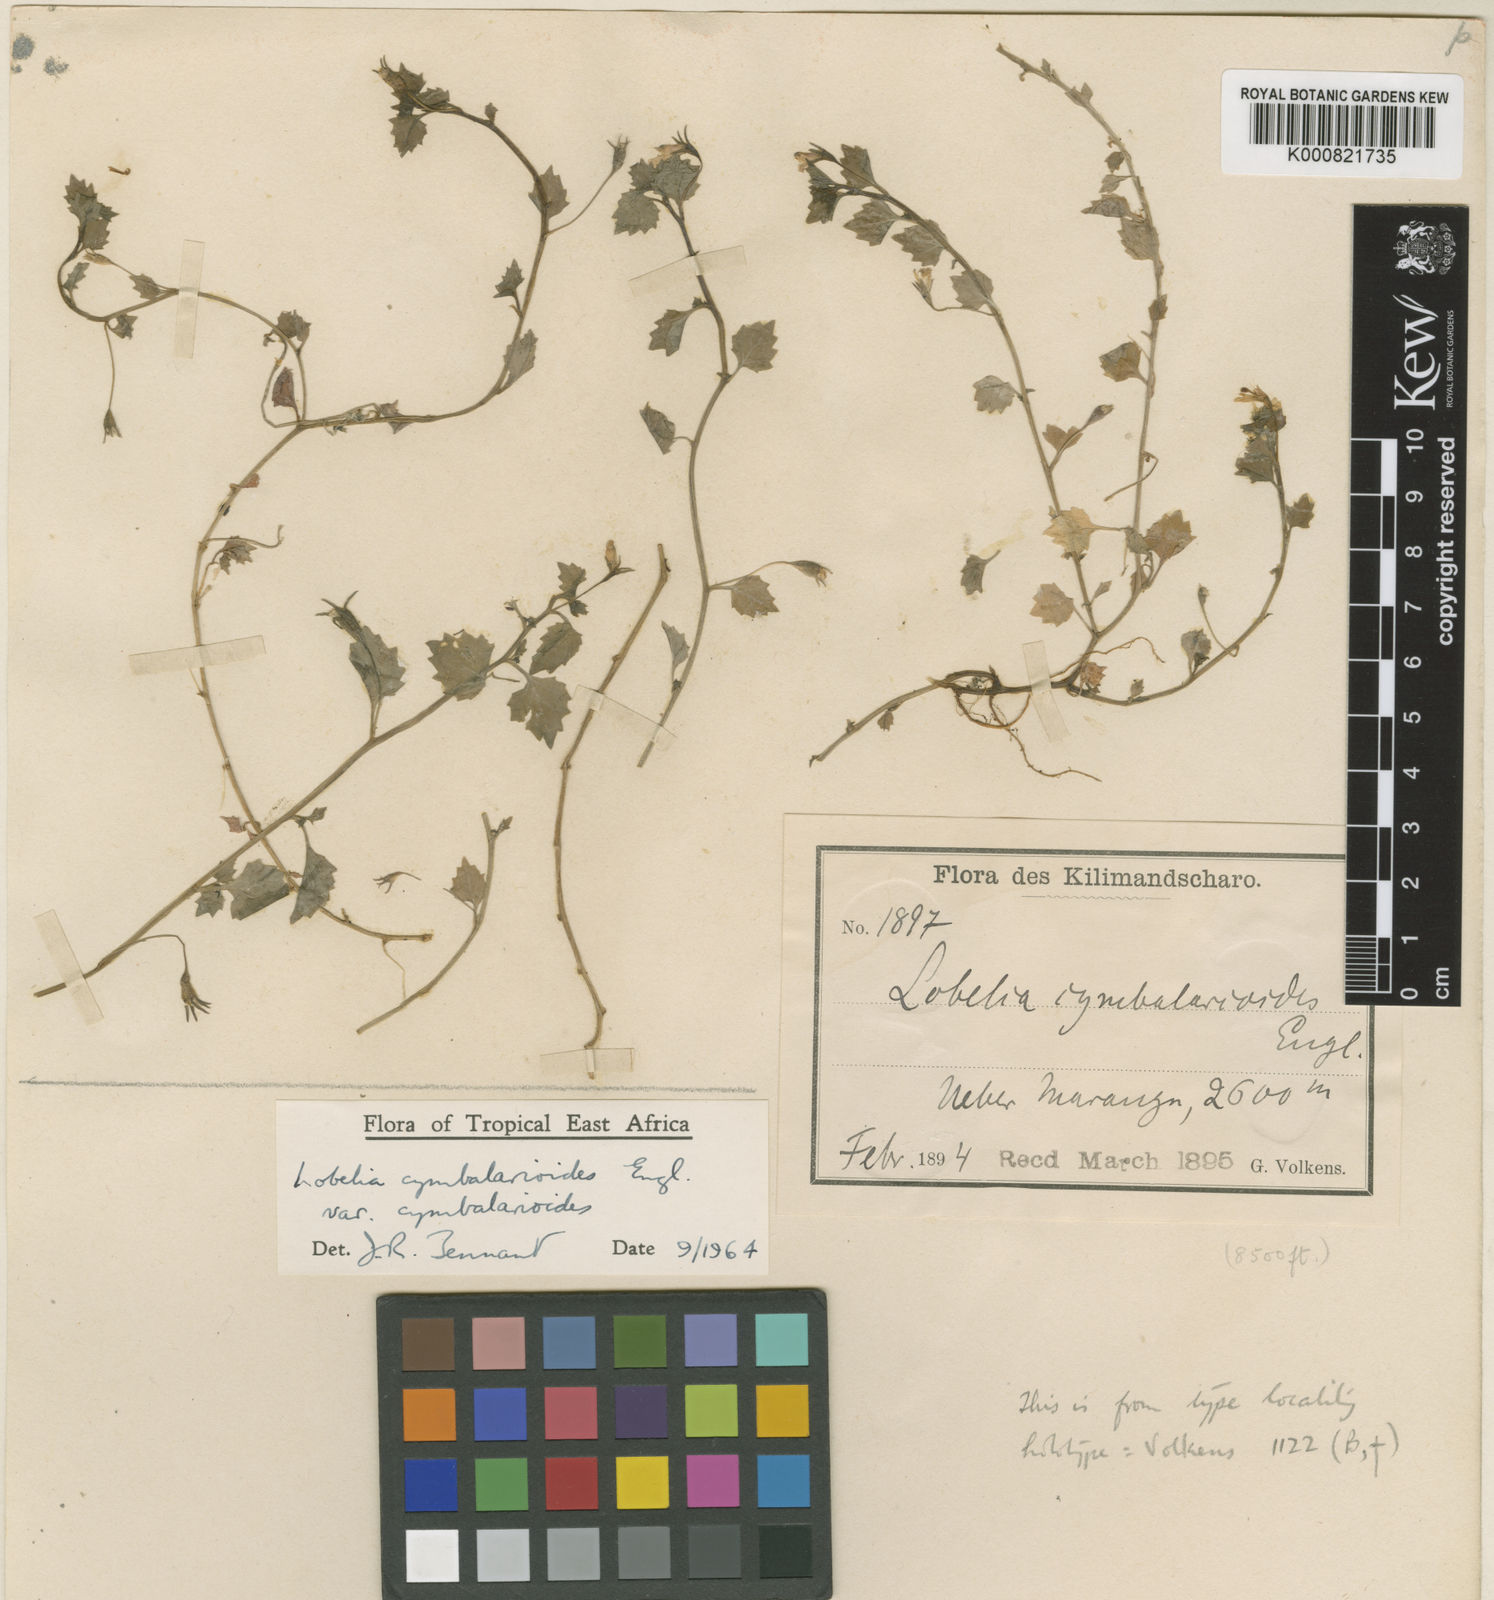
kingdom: Plantae
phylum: Tracheophyta
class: Magnoliopsida
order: Asterales
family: Campanulaceae
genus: Lobelia
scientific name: Lobelia cymbalarioides
